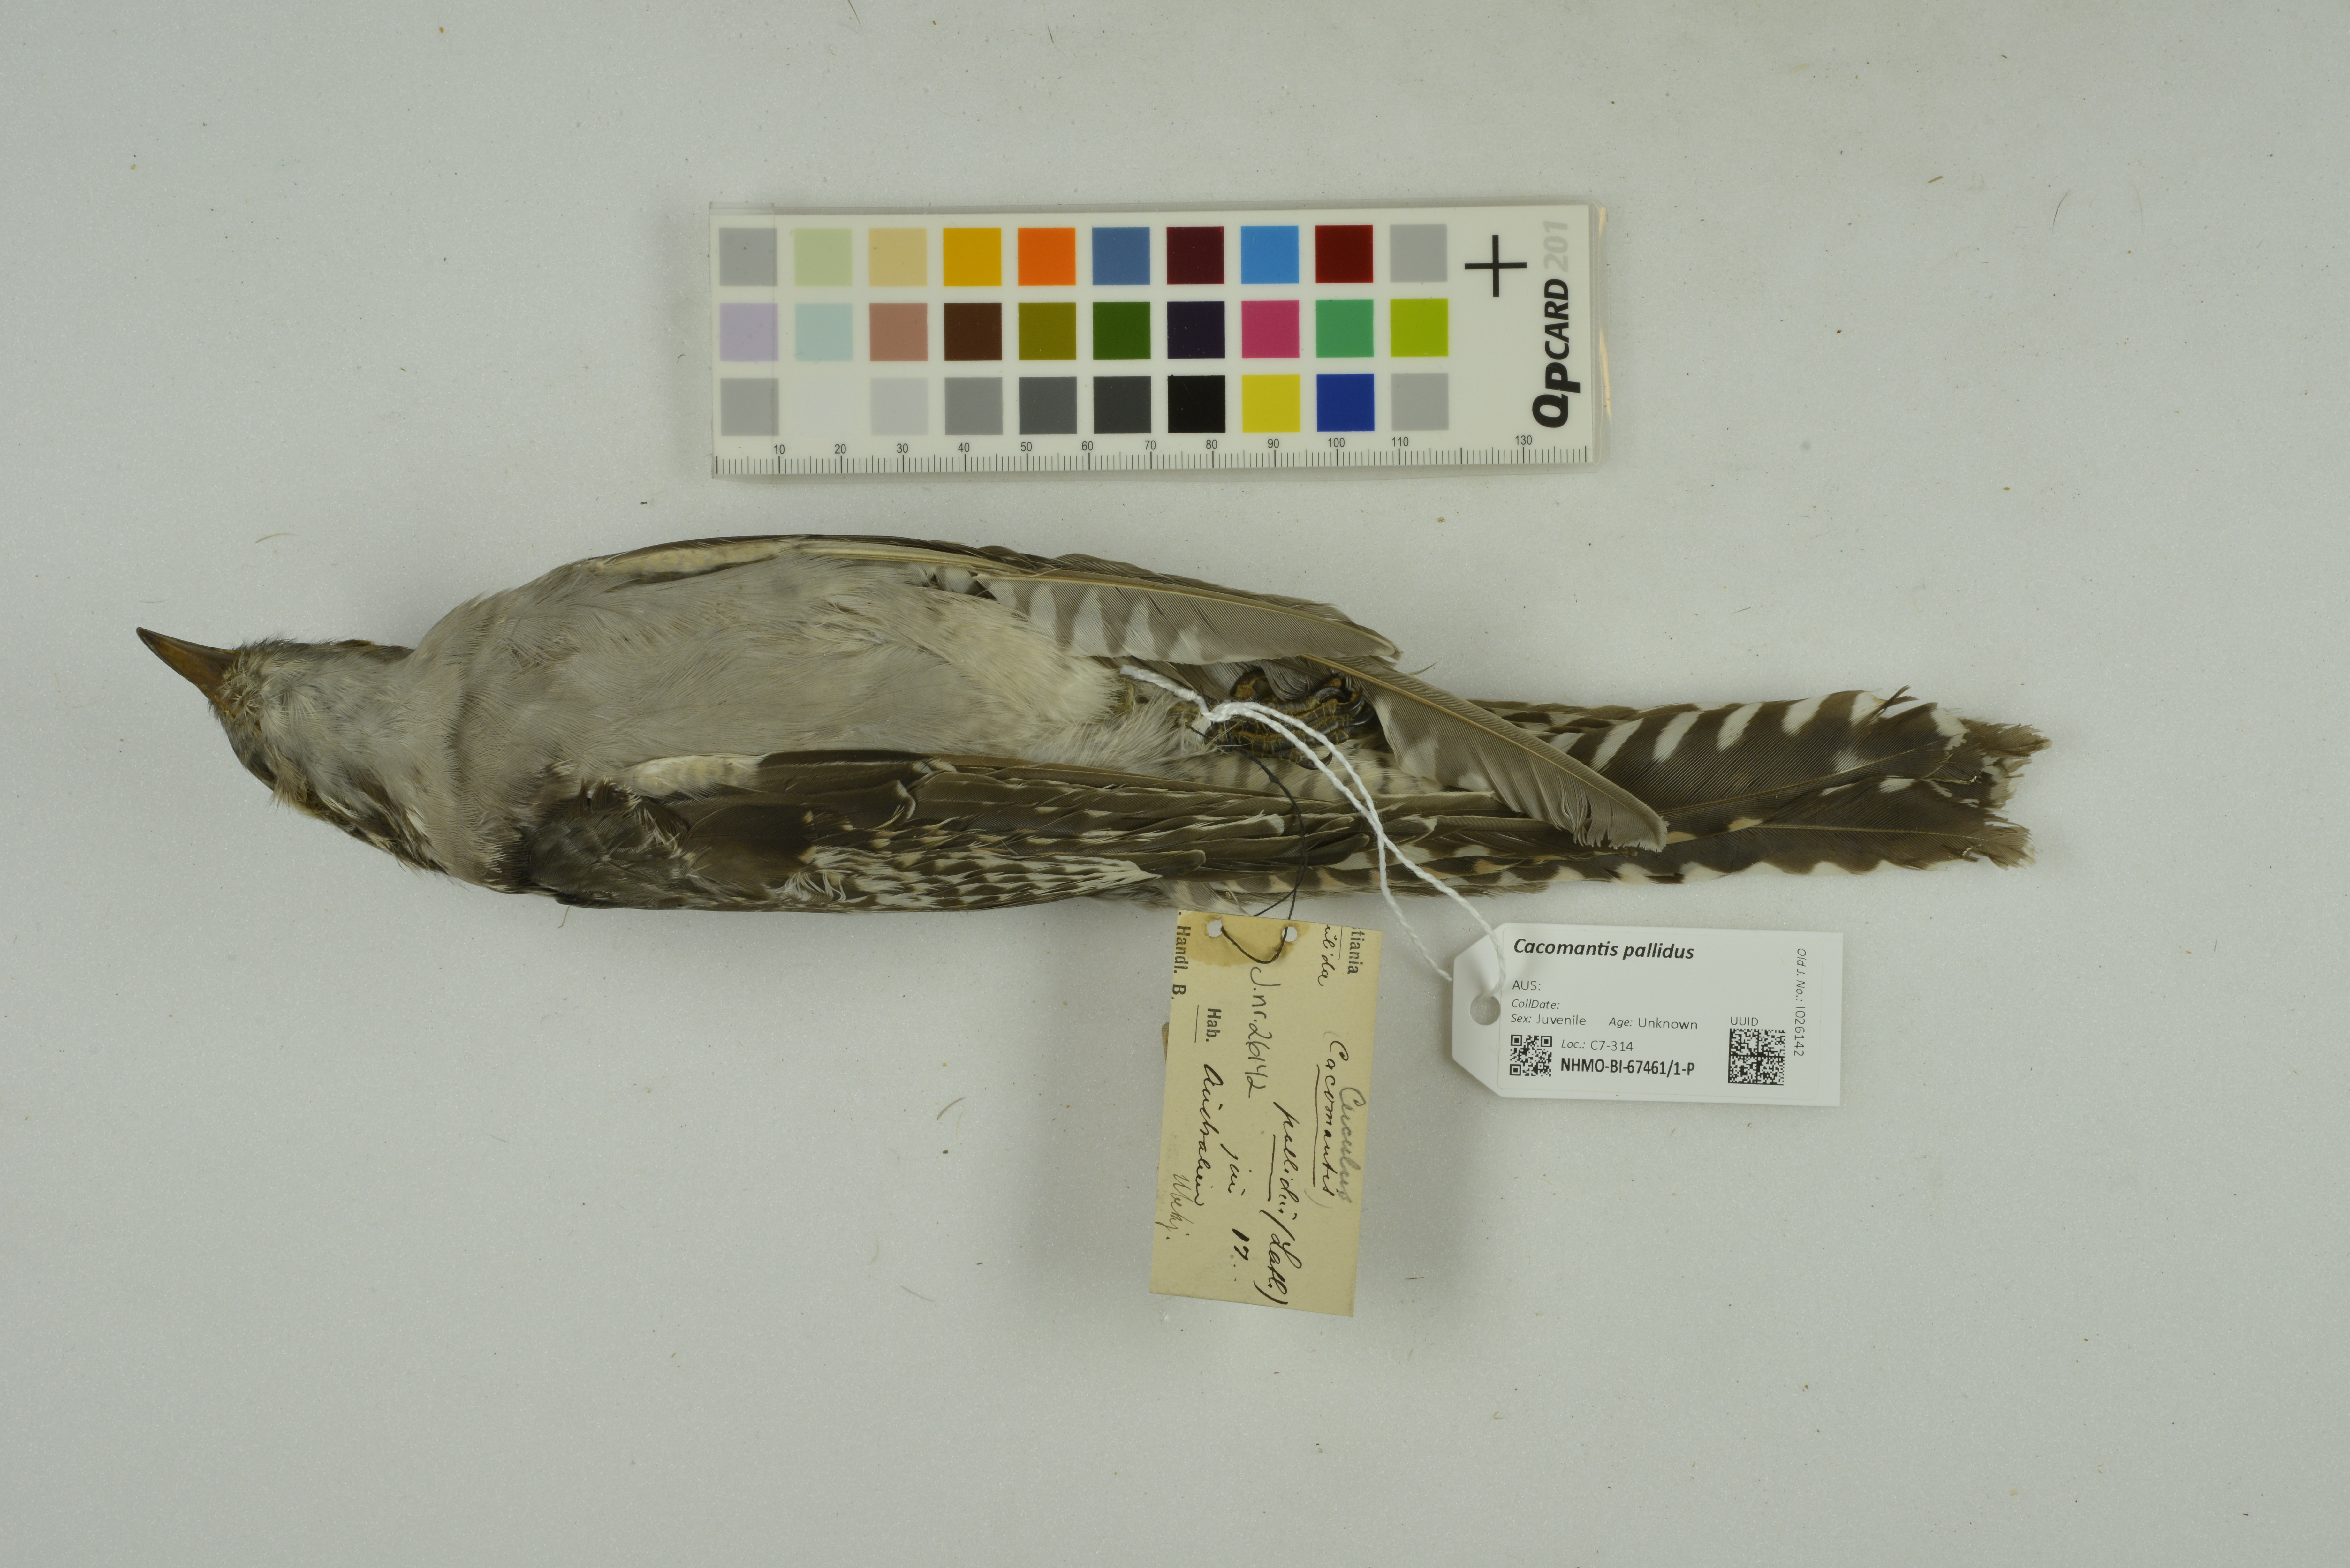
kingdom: Animalia
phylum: Chordata
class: Aves
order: Cuculiformes
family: Cuculidae
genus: Cuculus
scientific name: Cuculus pallidus
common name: Pallid cuckoo
